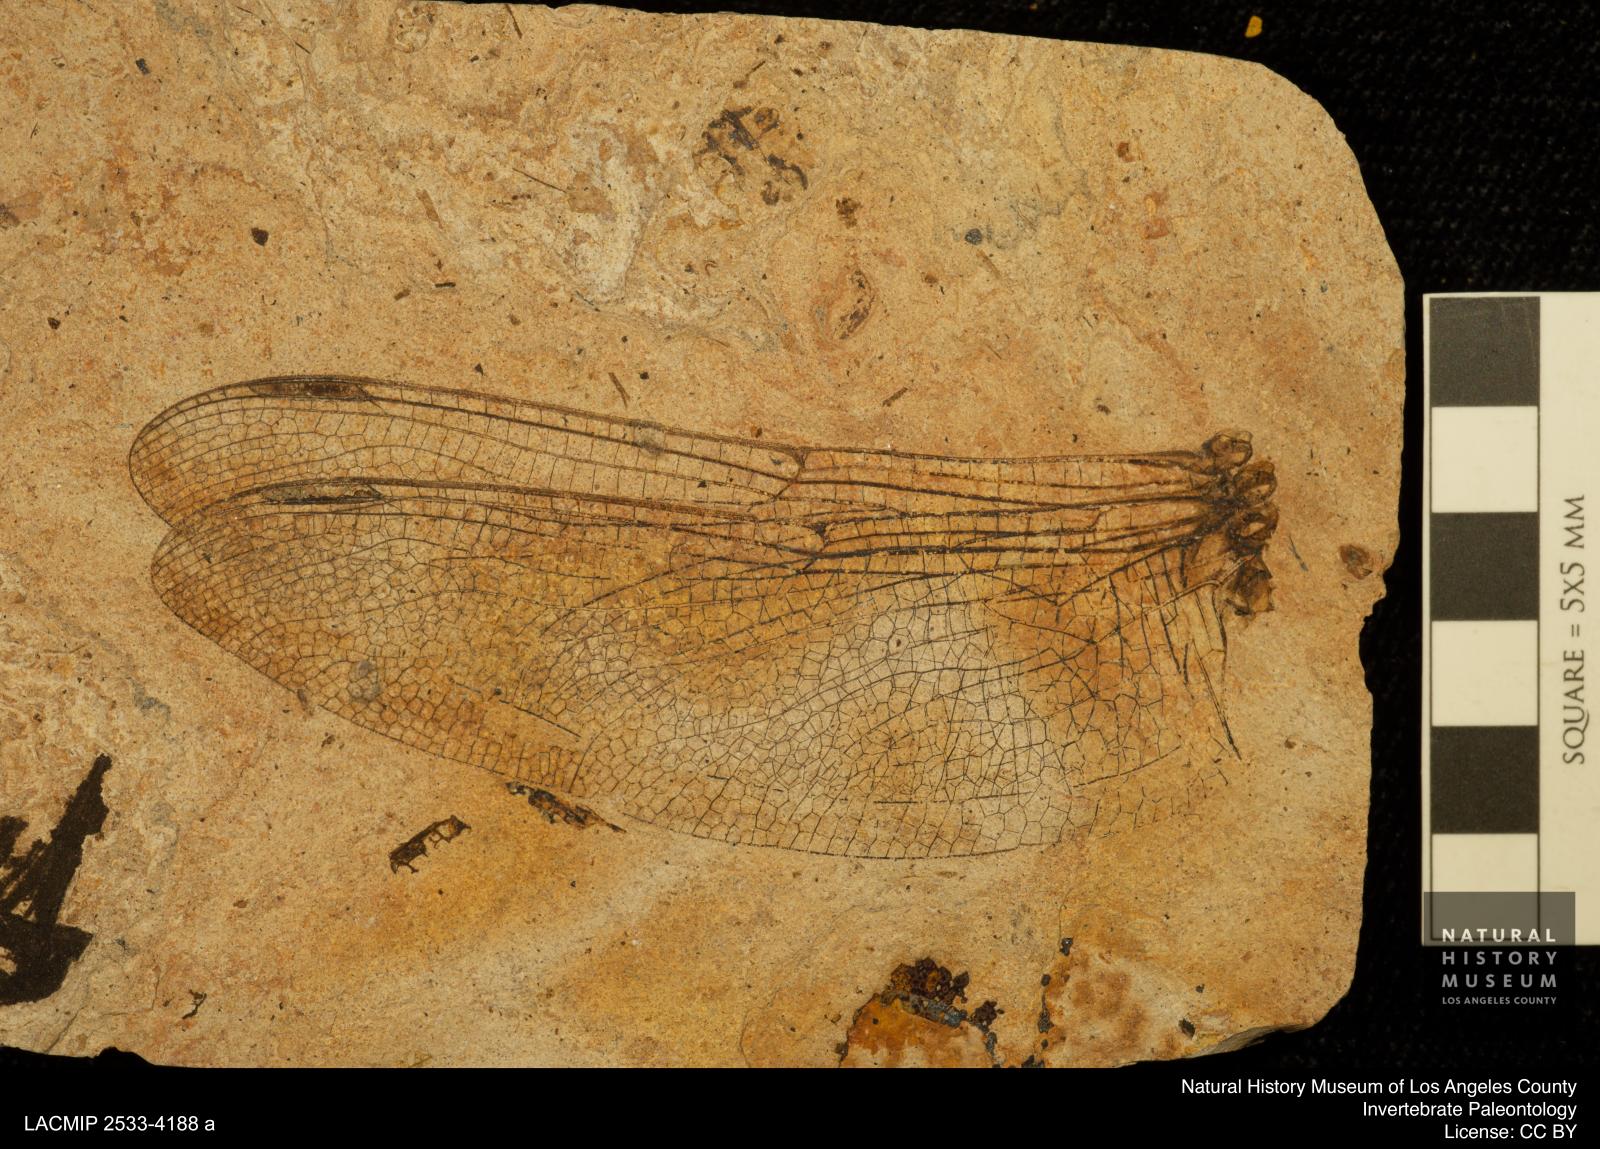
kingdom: Animalia
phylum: Arthropoda
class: Insecta
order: Odonata
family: Libellulidae
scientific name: Libellulidae
